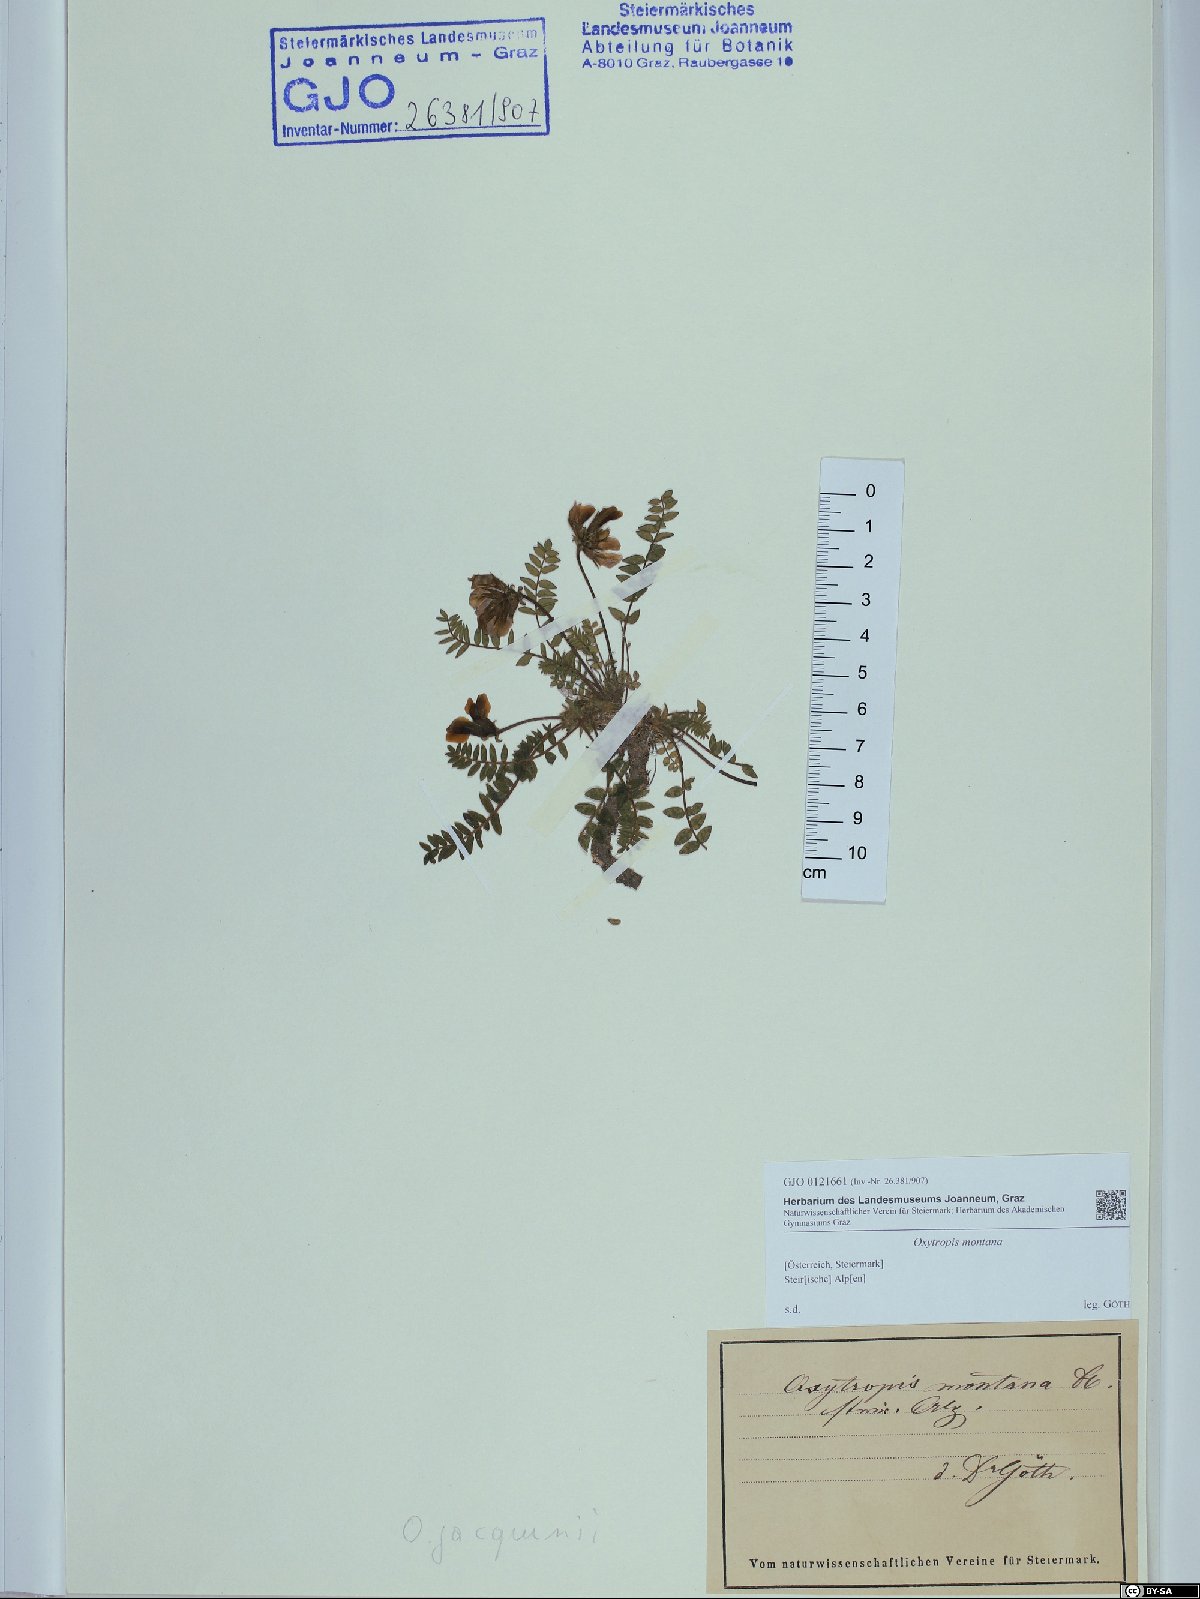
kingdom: Plantae
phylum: Tracheophyta
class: Magnoliopsida
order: Fabales
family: Fabaceae
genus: Oxytropis
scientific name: Oxytropis montana
